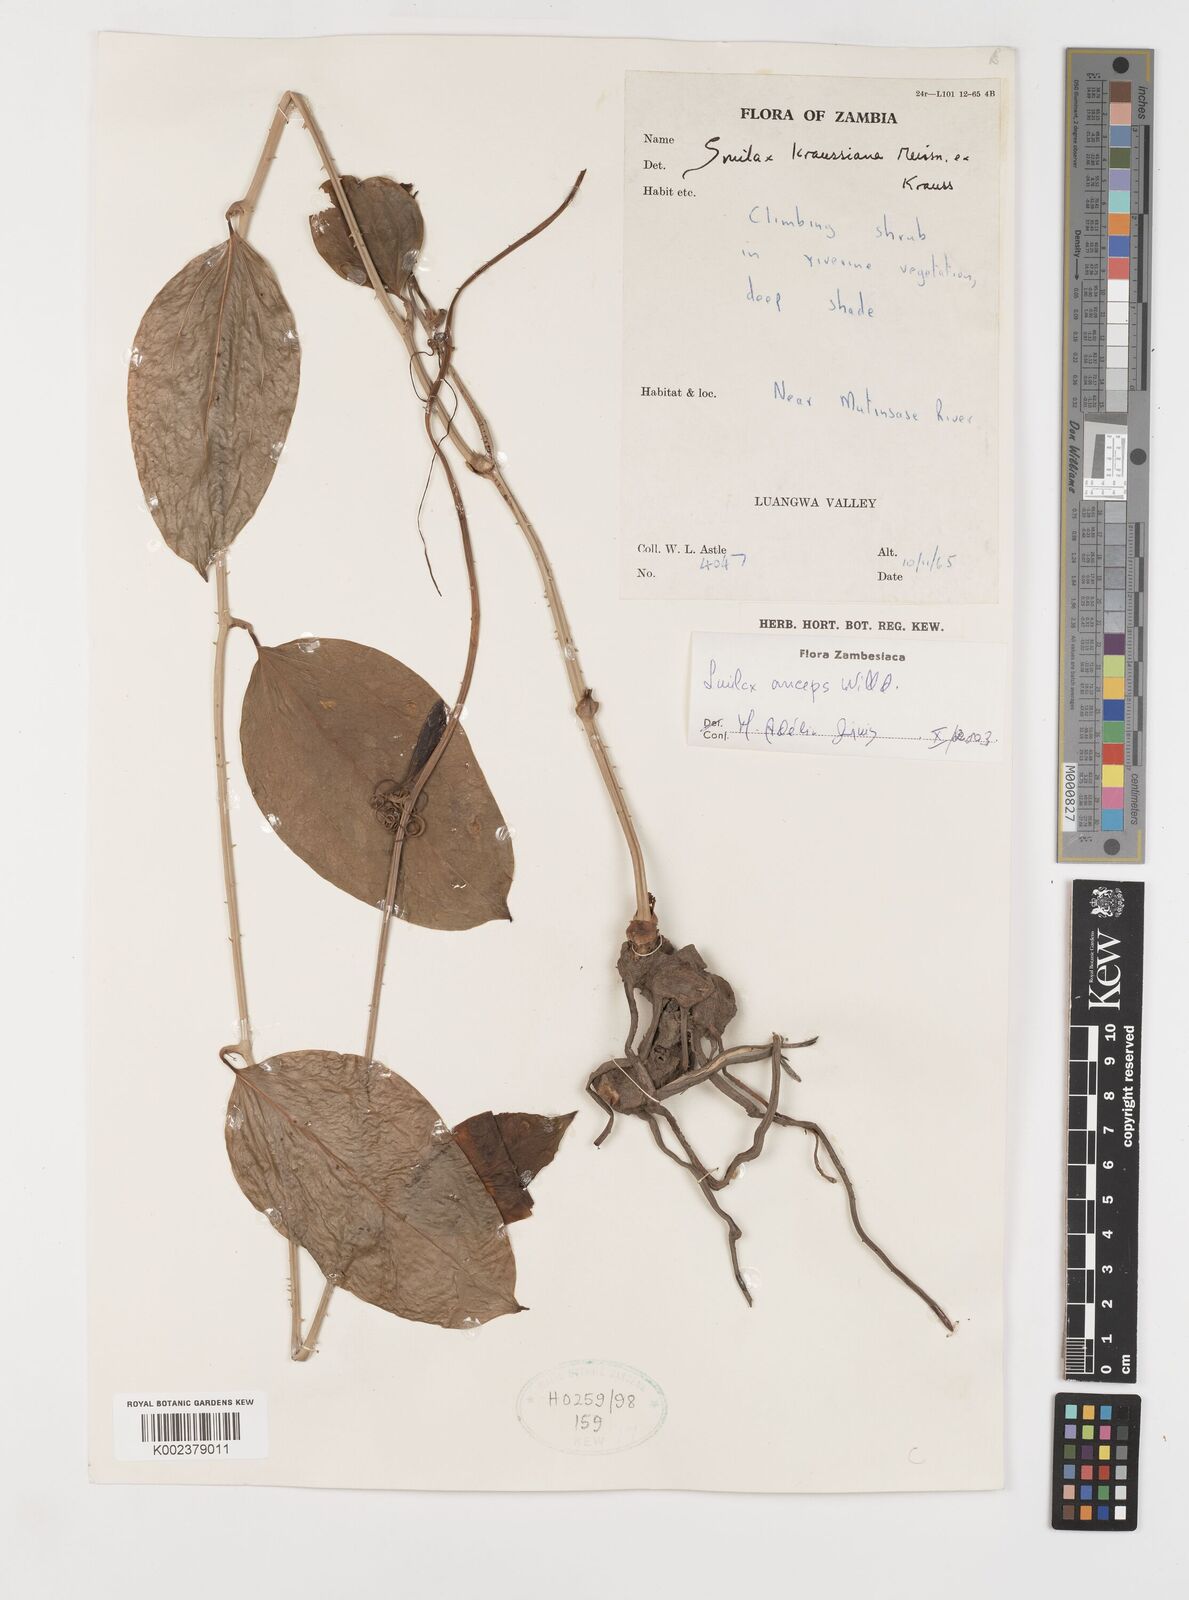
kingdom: Plantae
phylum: Tracheophyta
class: Liliopsida
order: Liliales
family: Smilacaceae
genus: Smilax
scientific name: Smilax anceps
